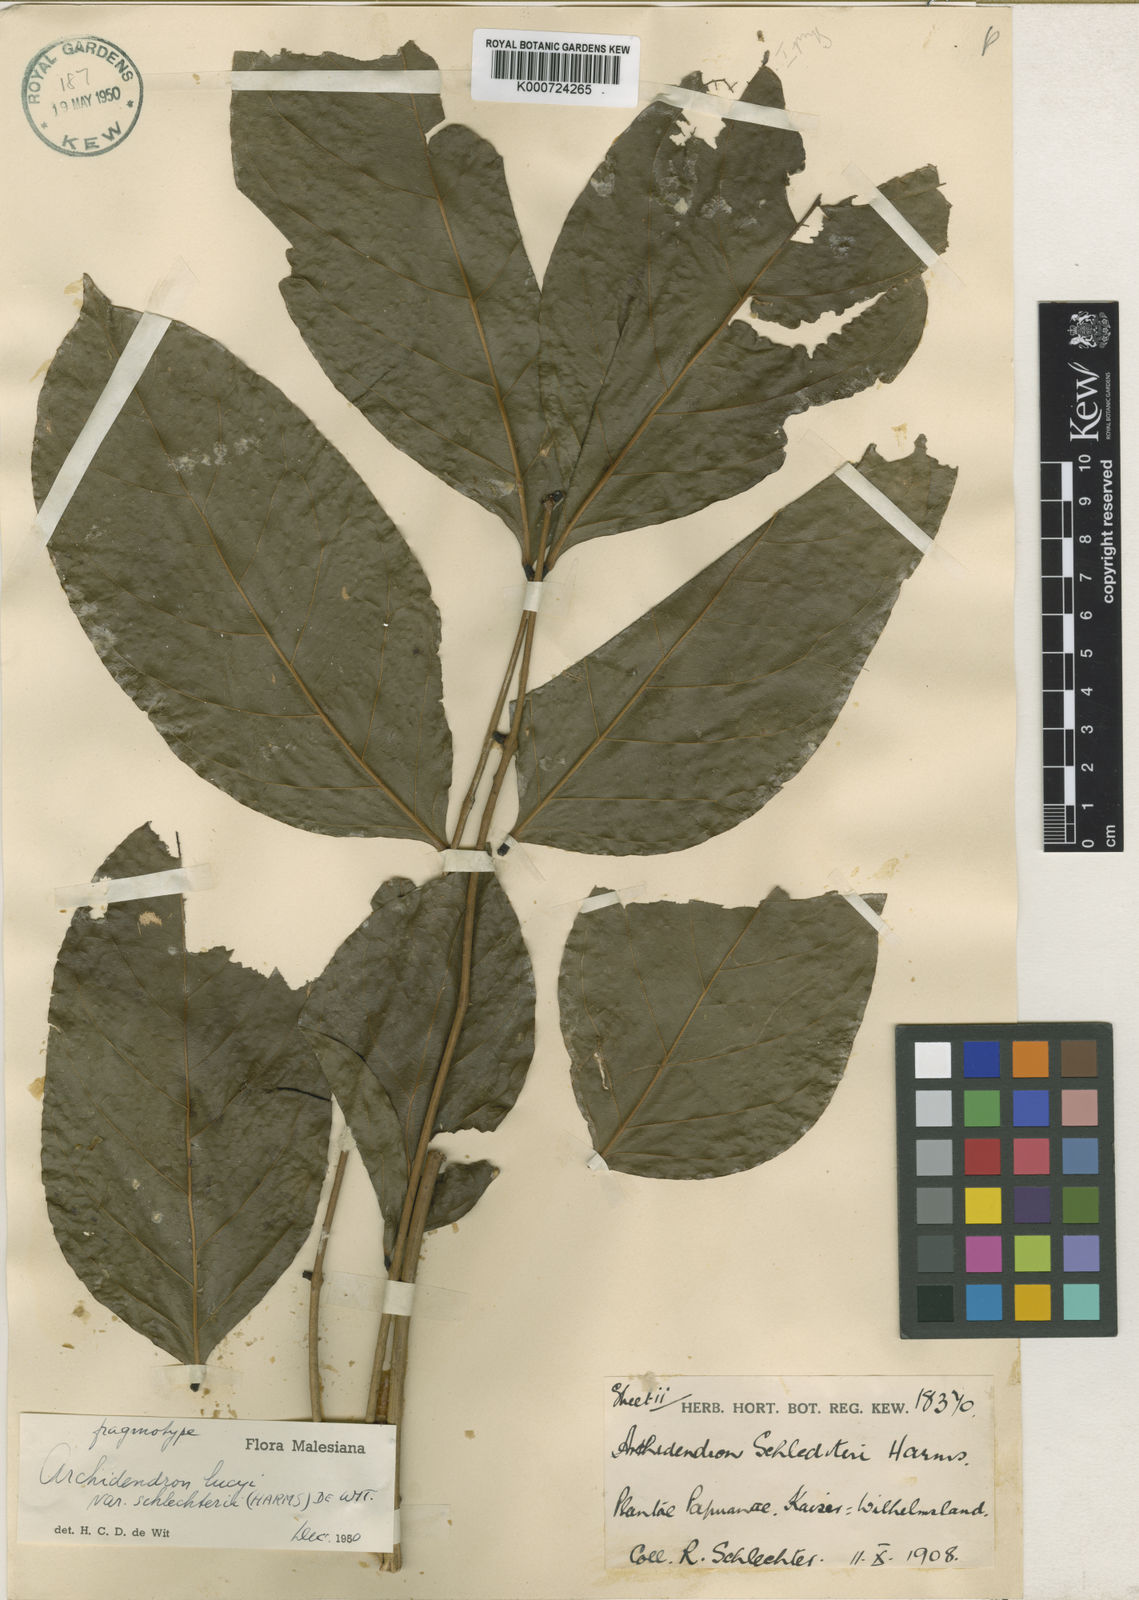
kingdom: Plantae
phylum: Tracheophyta
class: Magnoliopsida
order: Fabales
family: Fabaceae
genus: Archidendron
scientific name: Archidendron lucyi
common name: Scarlet bean
